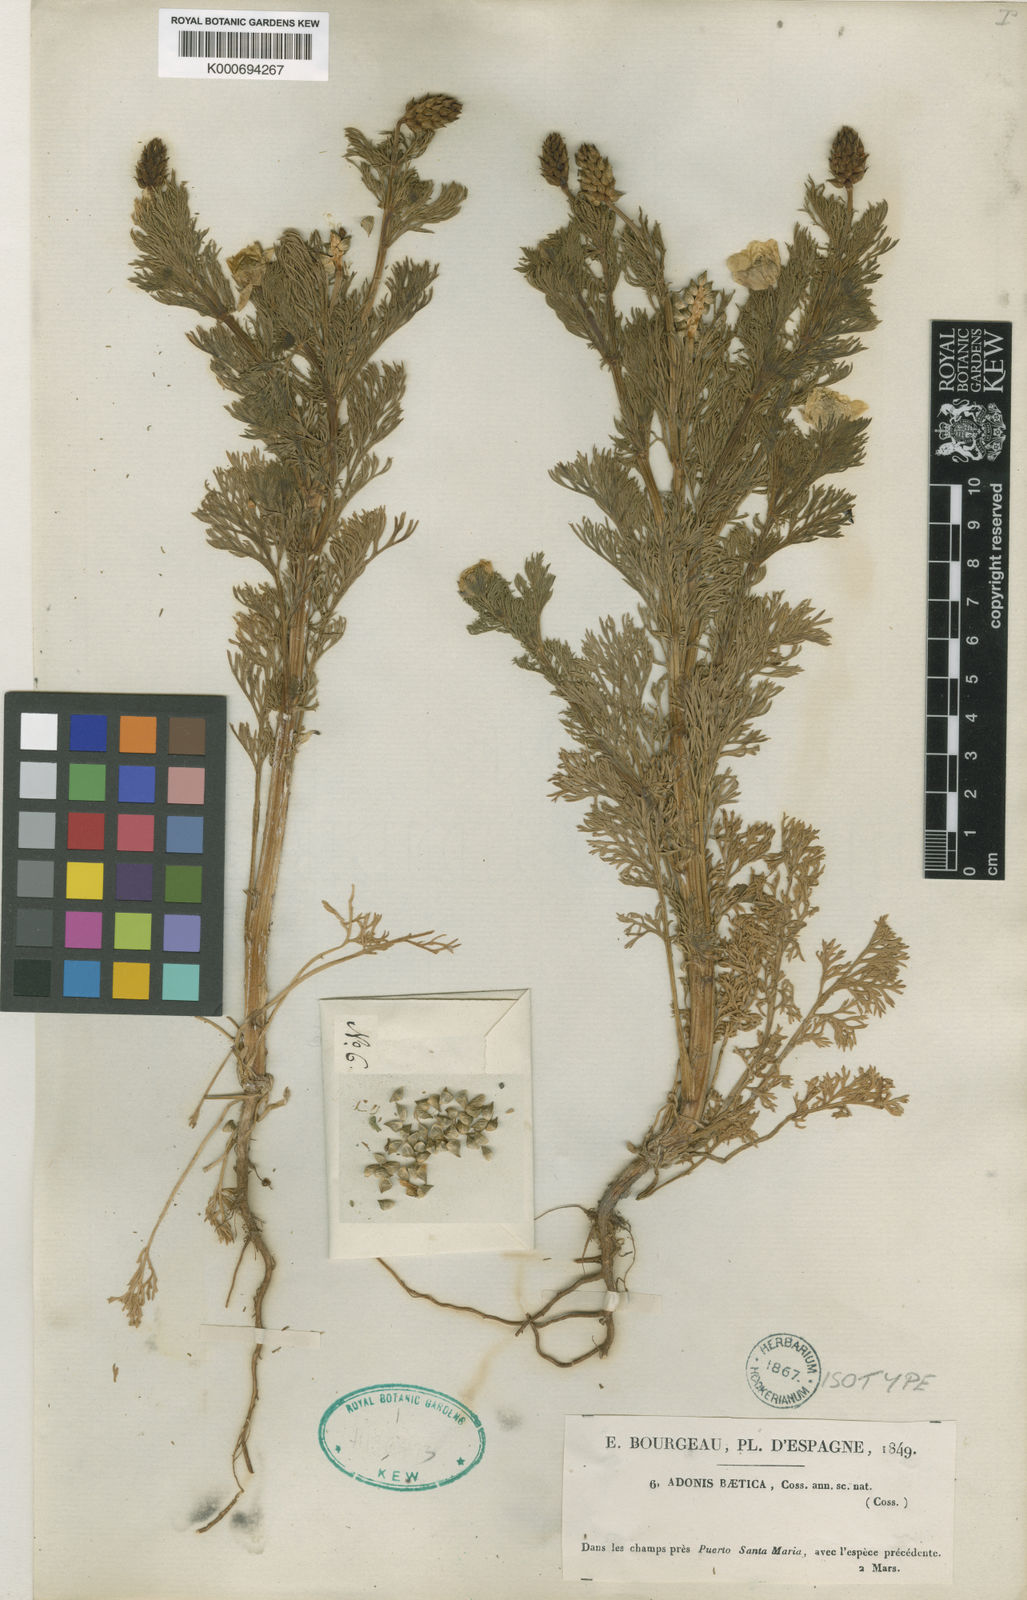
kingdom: Plantae
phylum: Tracheophyta
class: Magnoliopsida
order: Ranunculales
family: Ranunculaceae
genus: Adonis
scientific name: Adonis annua
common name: Pheasant's-eye
